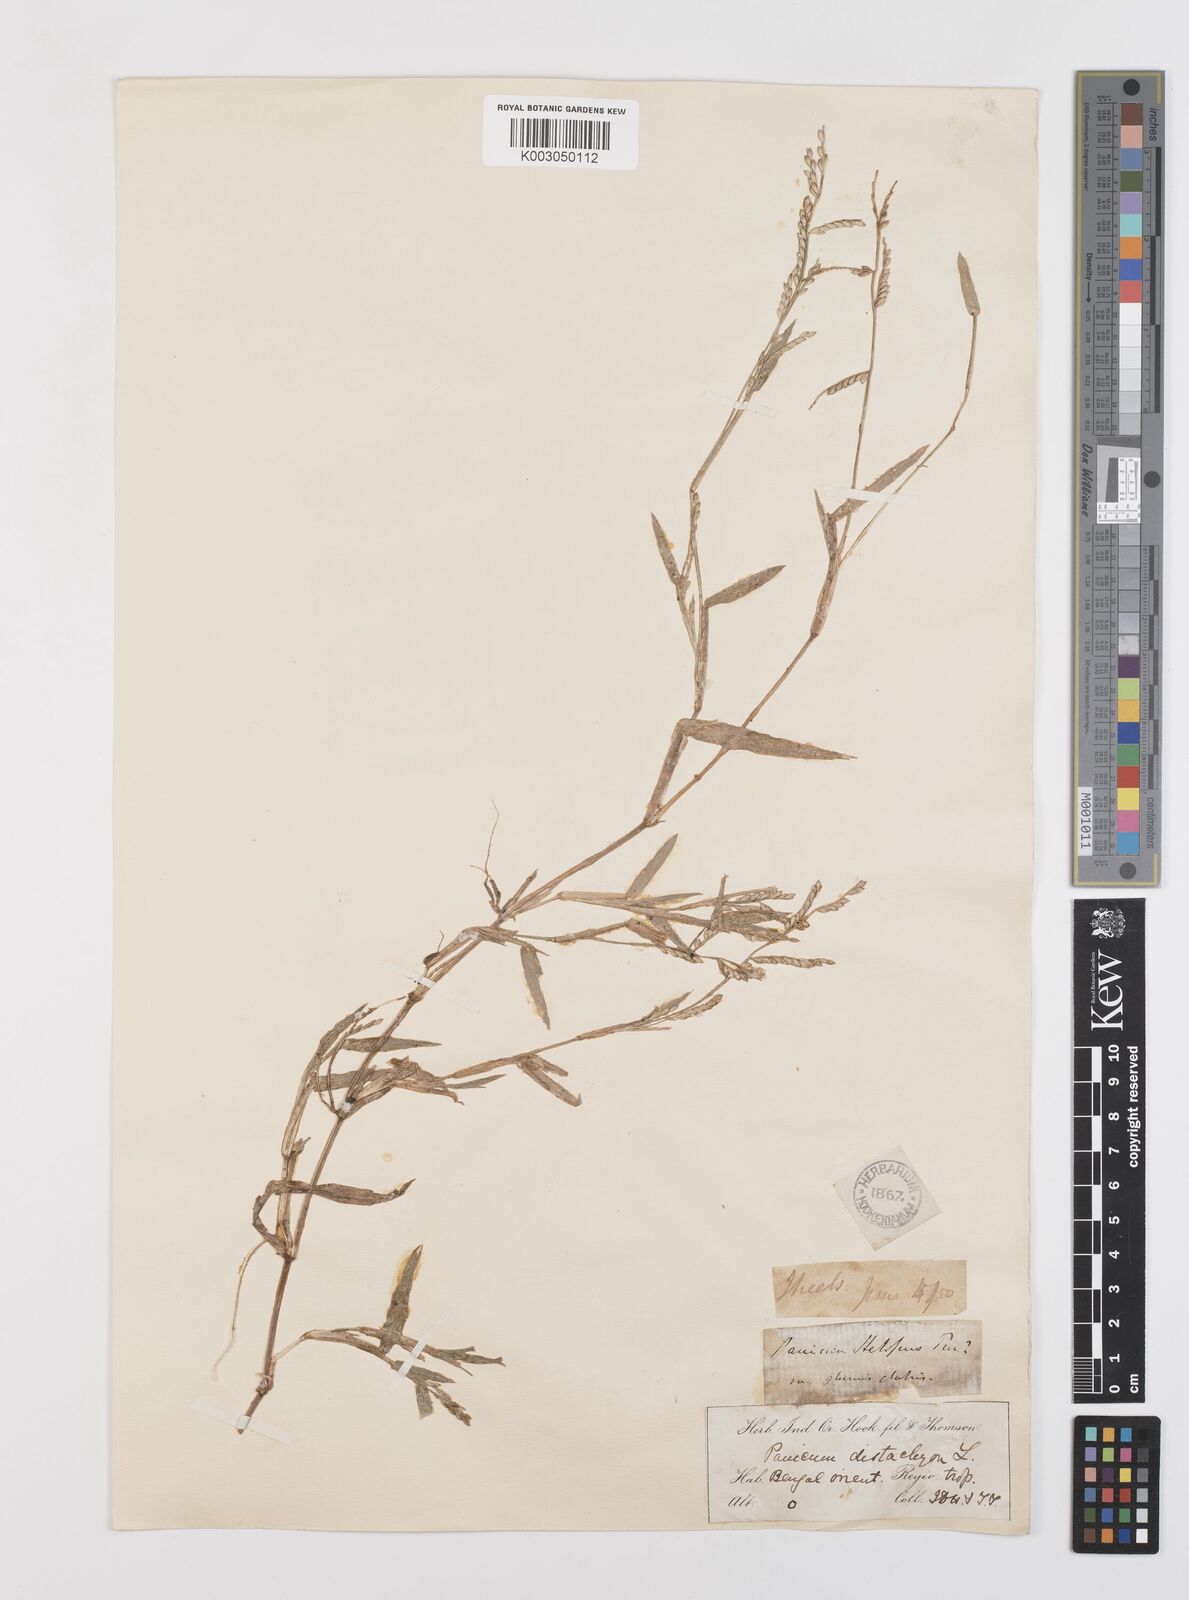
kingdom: Plantae
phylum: Tracheophyta
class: Liliopsida
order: Poales
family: Poaceae
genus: Urochloa
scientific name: Urochloa subquadripara
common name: Armgrass millet
